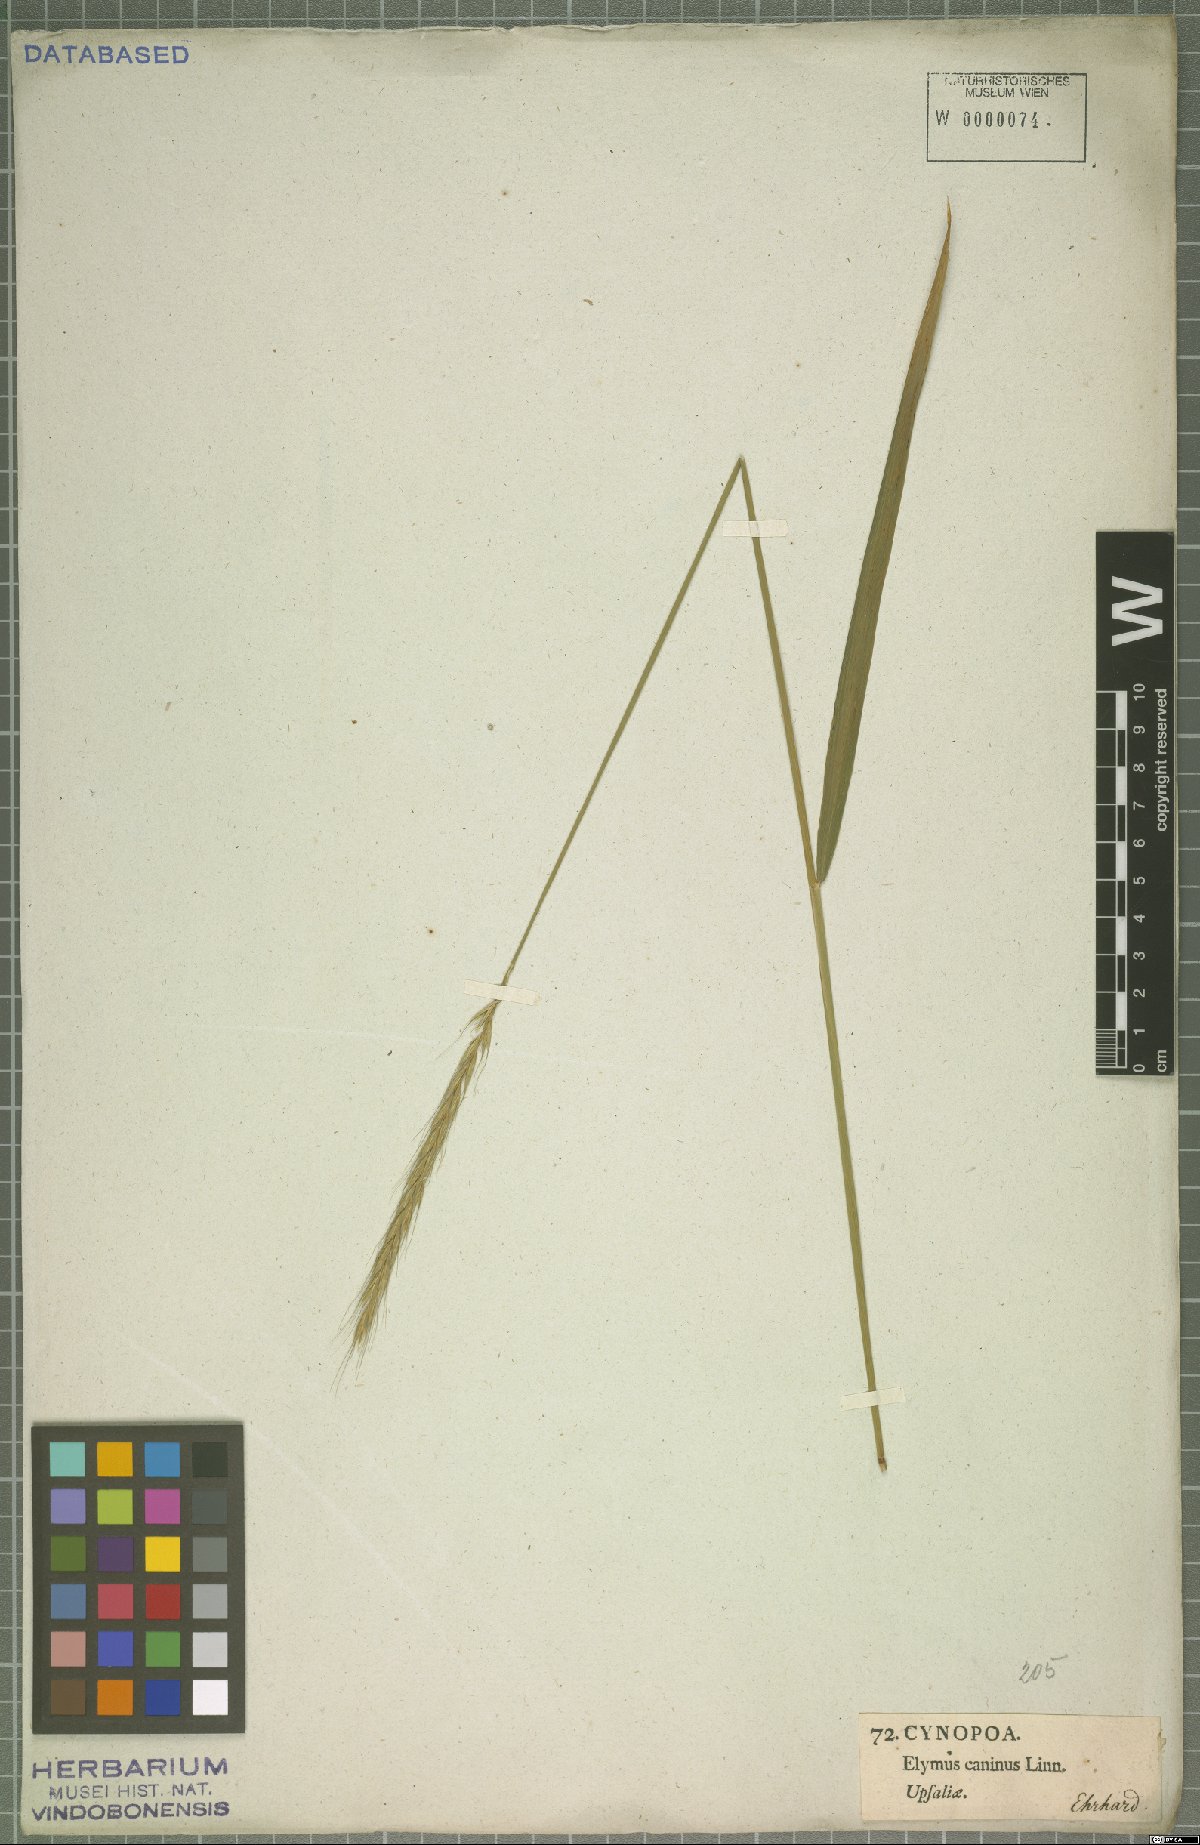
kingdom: Plantae
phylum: Tracheophyta
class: Liliopsida
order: Poales
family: Poaceae
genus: Elymus
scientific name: Elymus caninus
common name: Bearded couch
